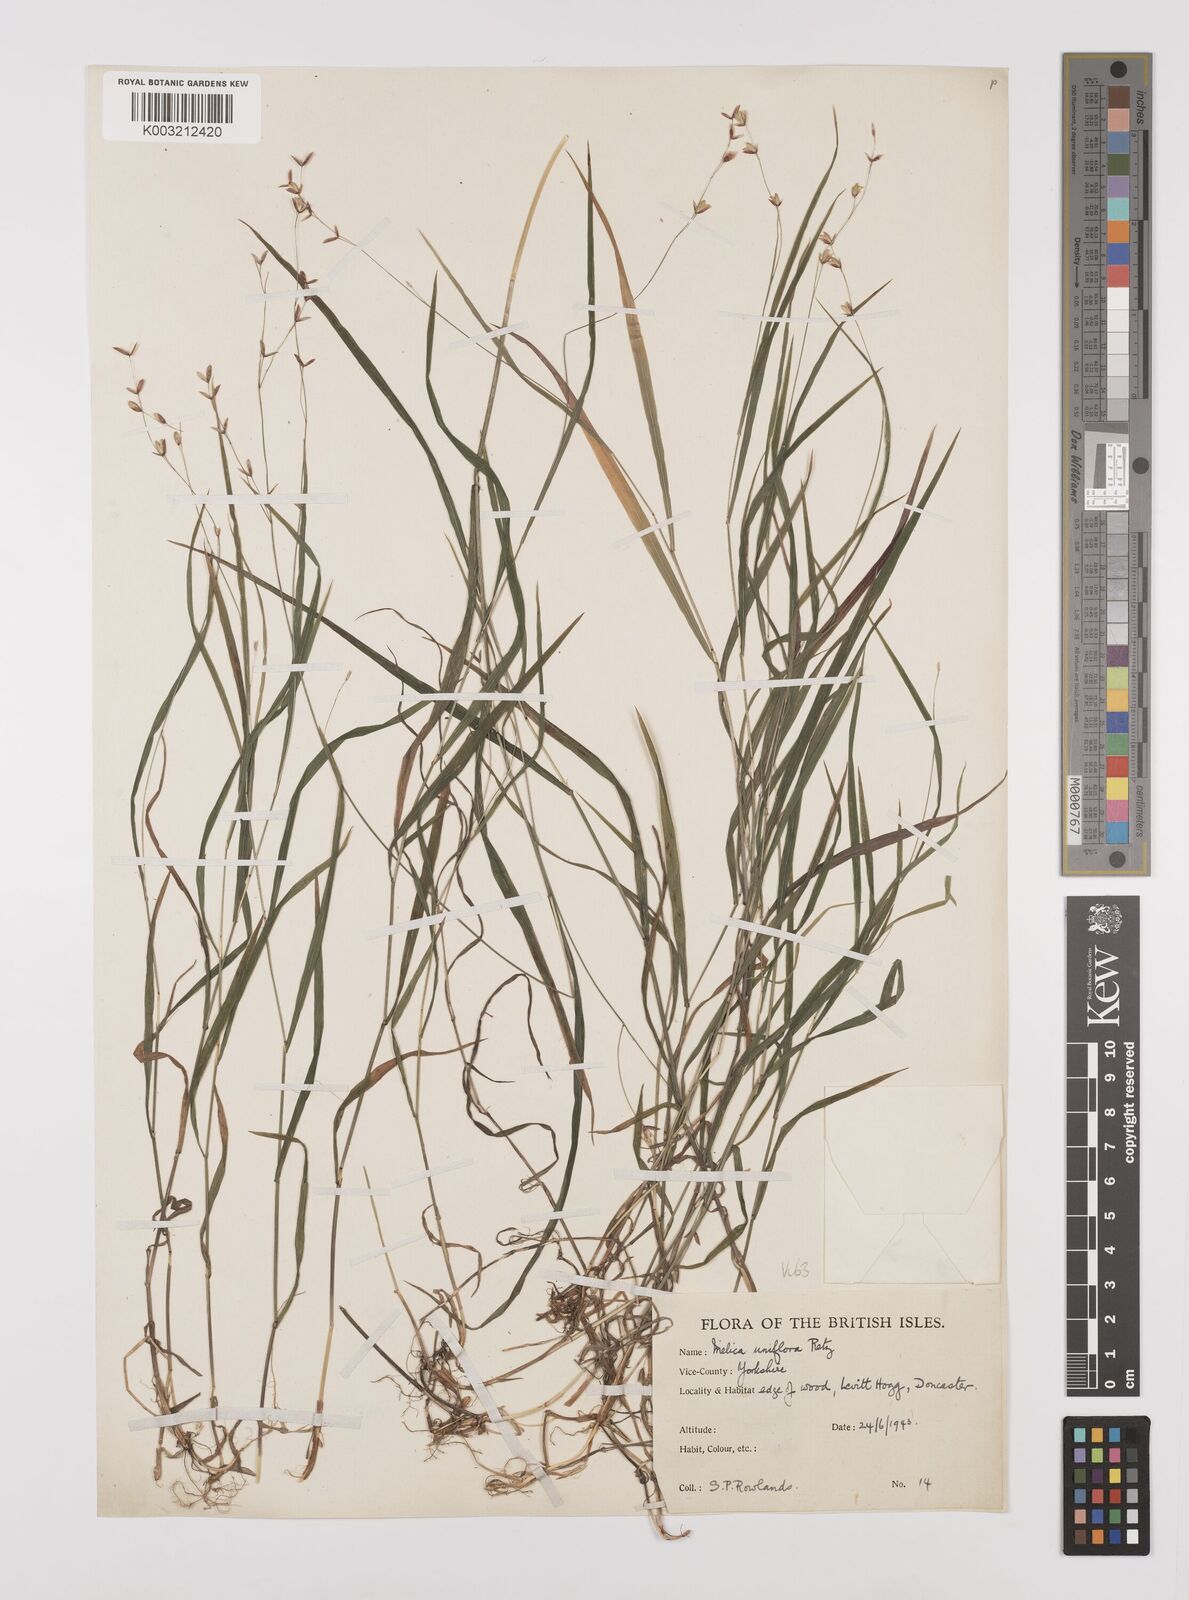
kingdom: Plantae
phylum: Tracheophyta
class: Liliopsida
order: Poales
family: Poaceae
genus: Melica
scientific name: Melica uniflora
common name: Wood melick
